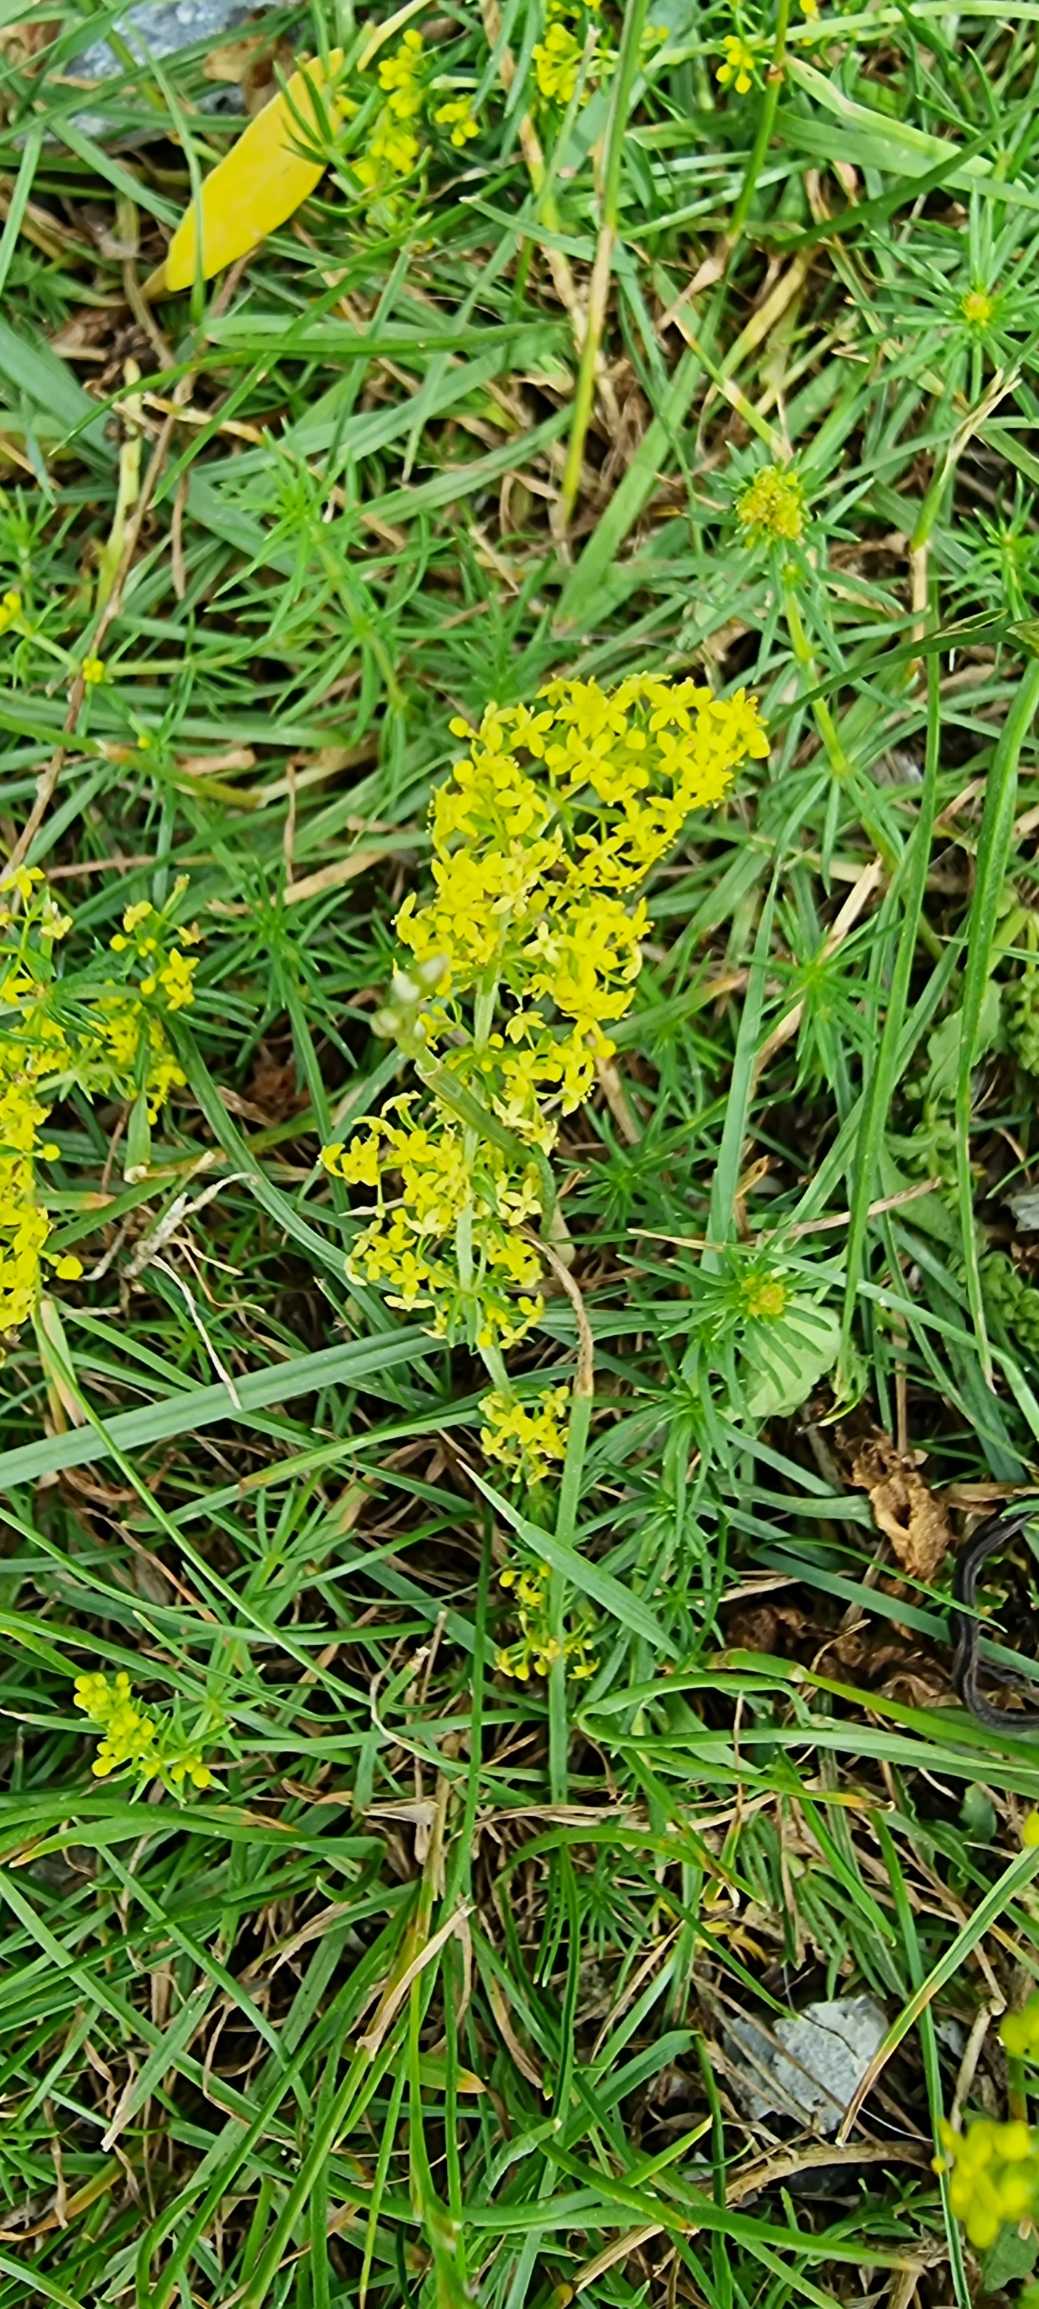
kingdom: Plantae
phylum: Tracheophyta
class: Magnoliopsida
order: Gentianales
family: Rubiaceae
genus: Galium
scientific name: Galium verum
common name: Gul snerre
